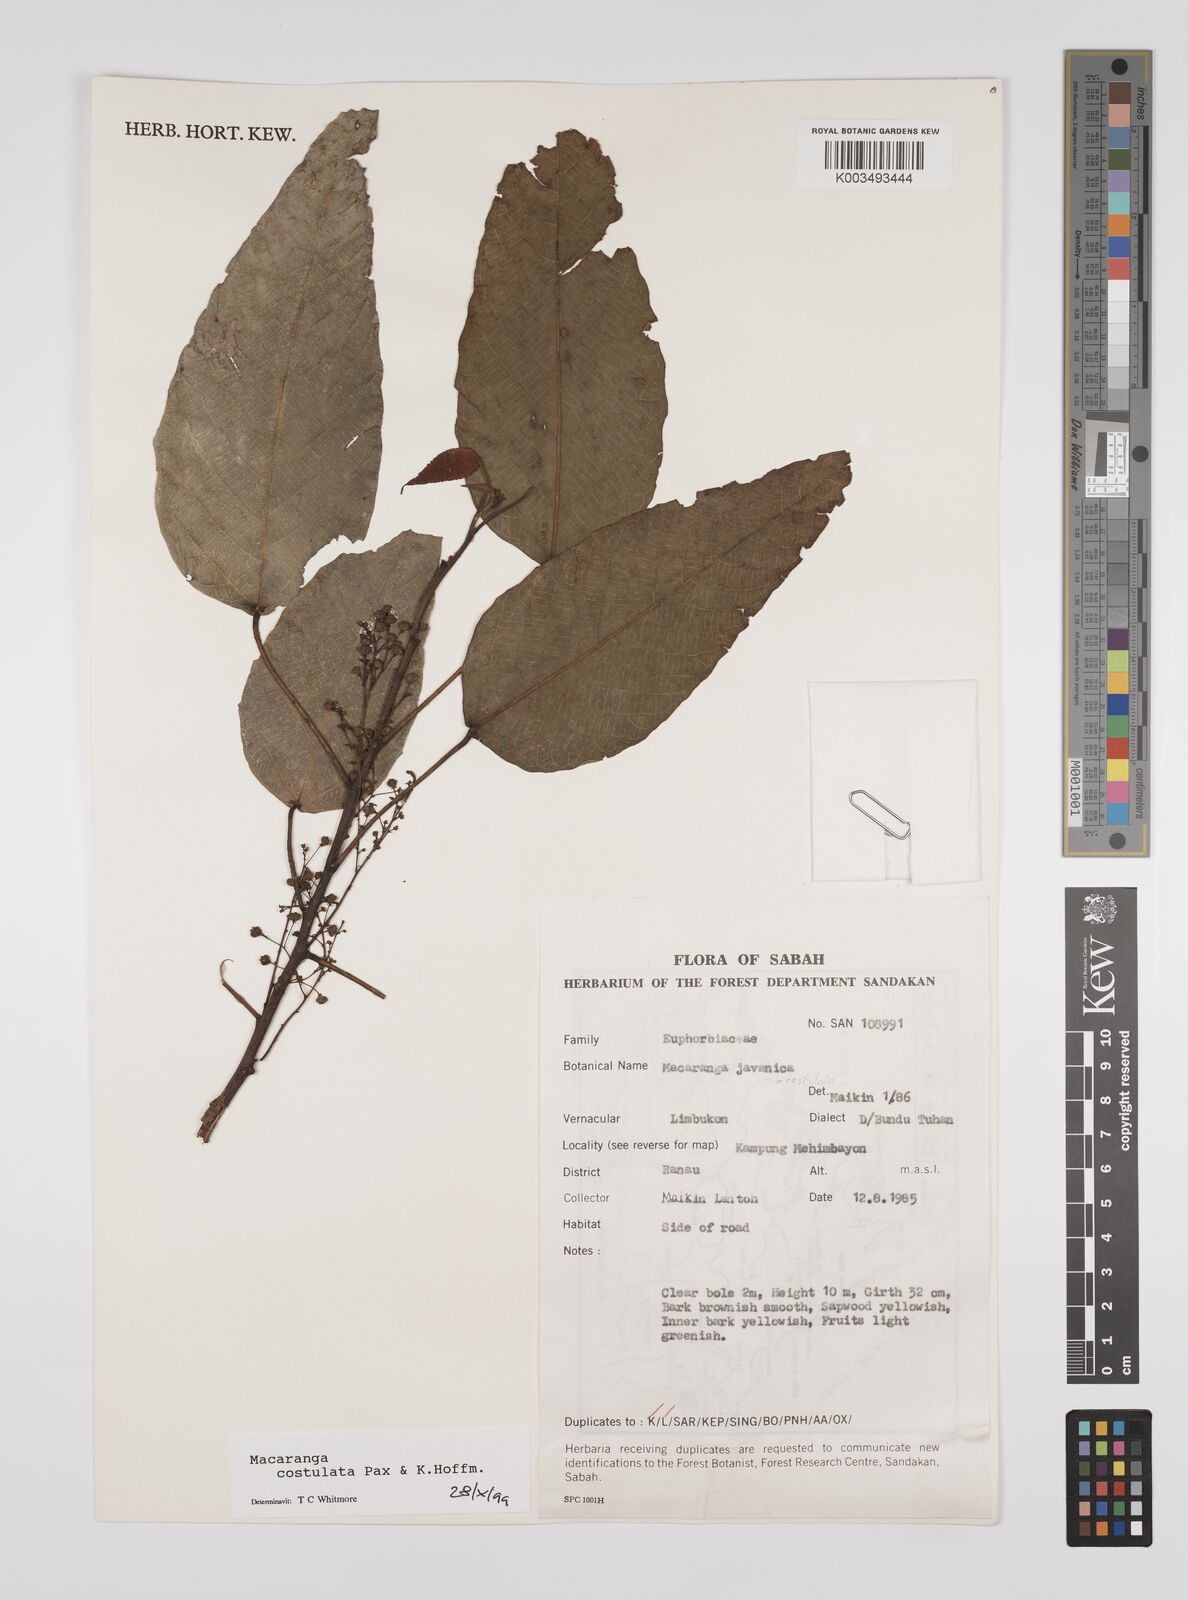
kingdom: Plantae
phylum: Tracheophyta
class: Magnoliopsida
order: Malpighiales
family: Euphorbiaceae
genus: Macaranga
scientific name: Macaranga costulata
